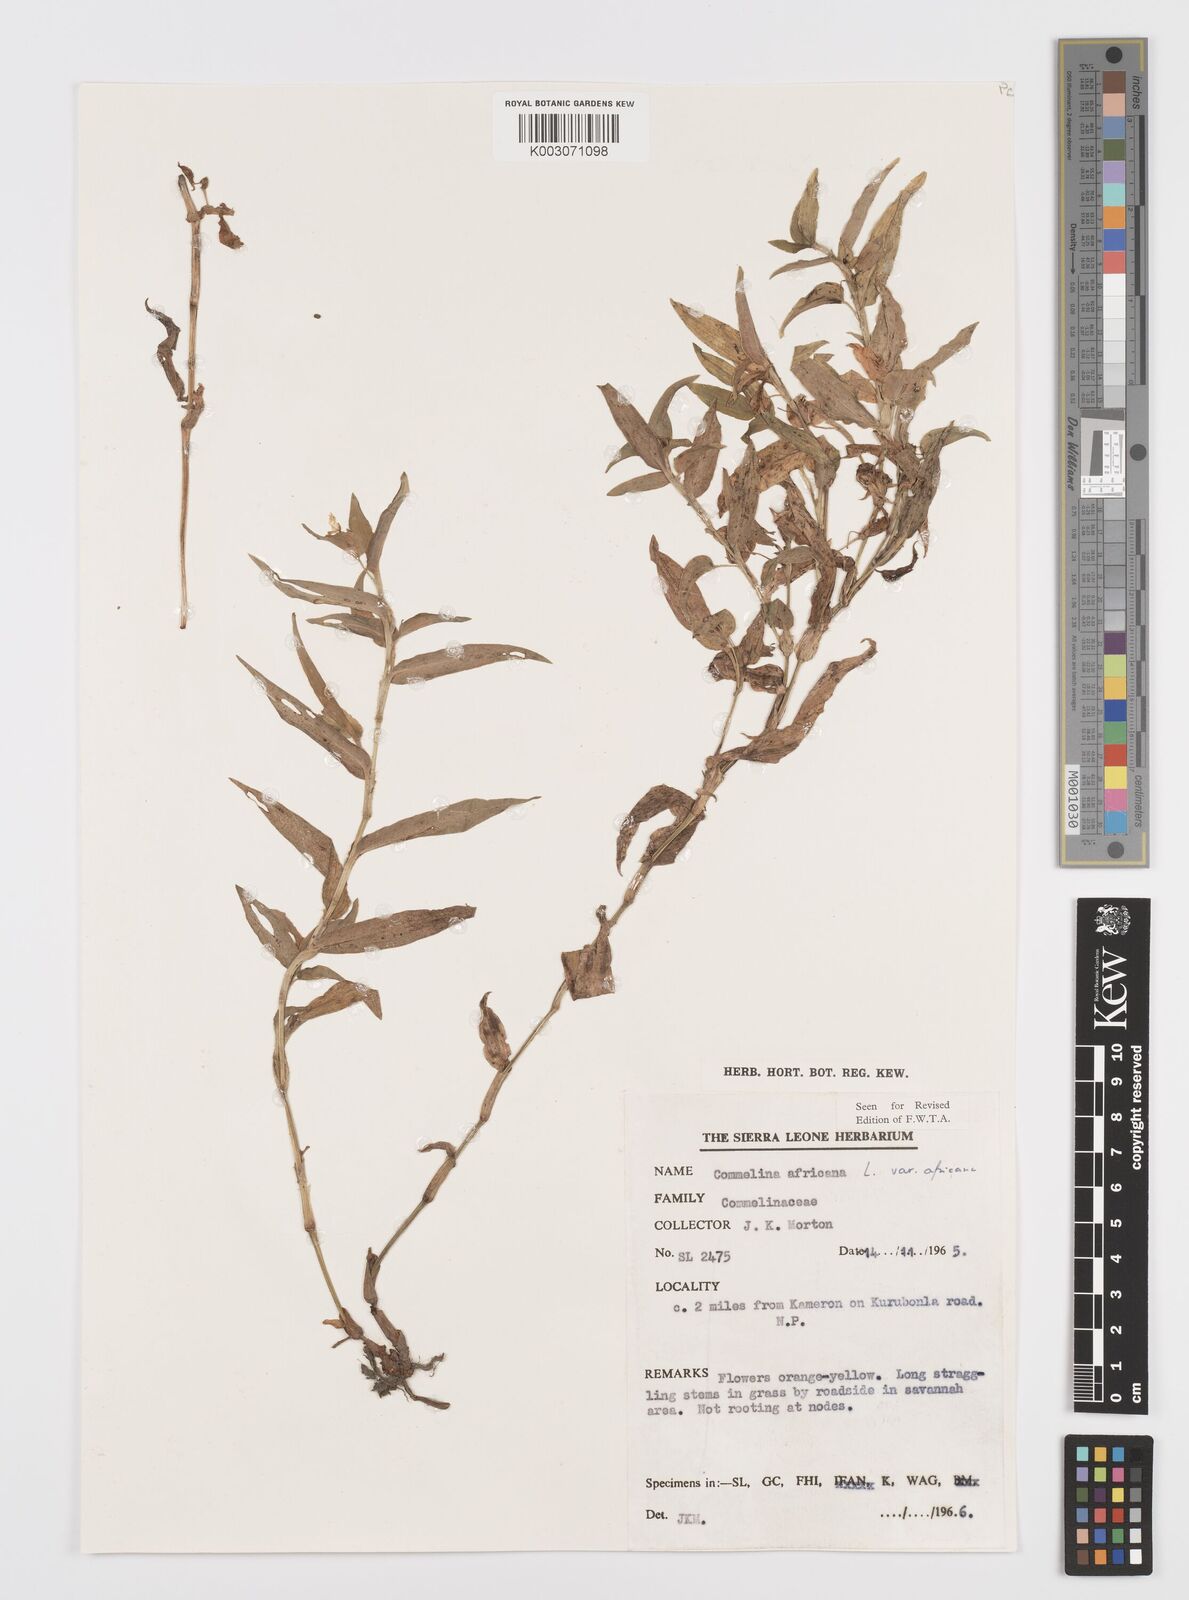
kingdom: Plantae
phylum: Tracheophyta
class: Liliopsida
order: Commelinales
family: Commelinaceae
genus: Commelina
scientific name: Commelina africana
